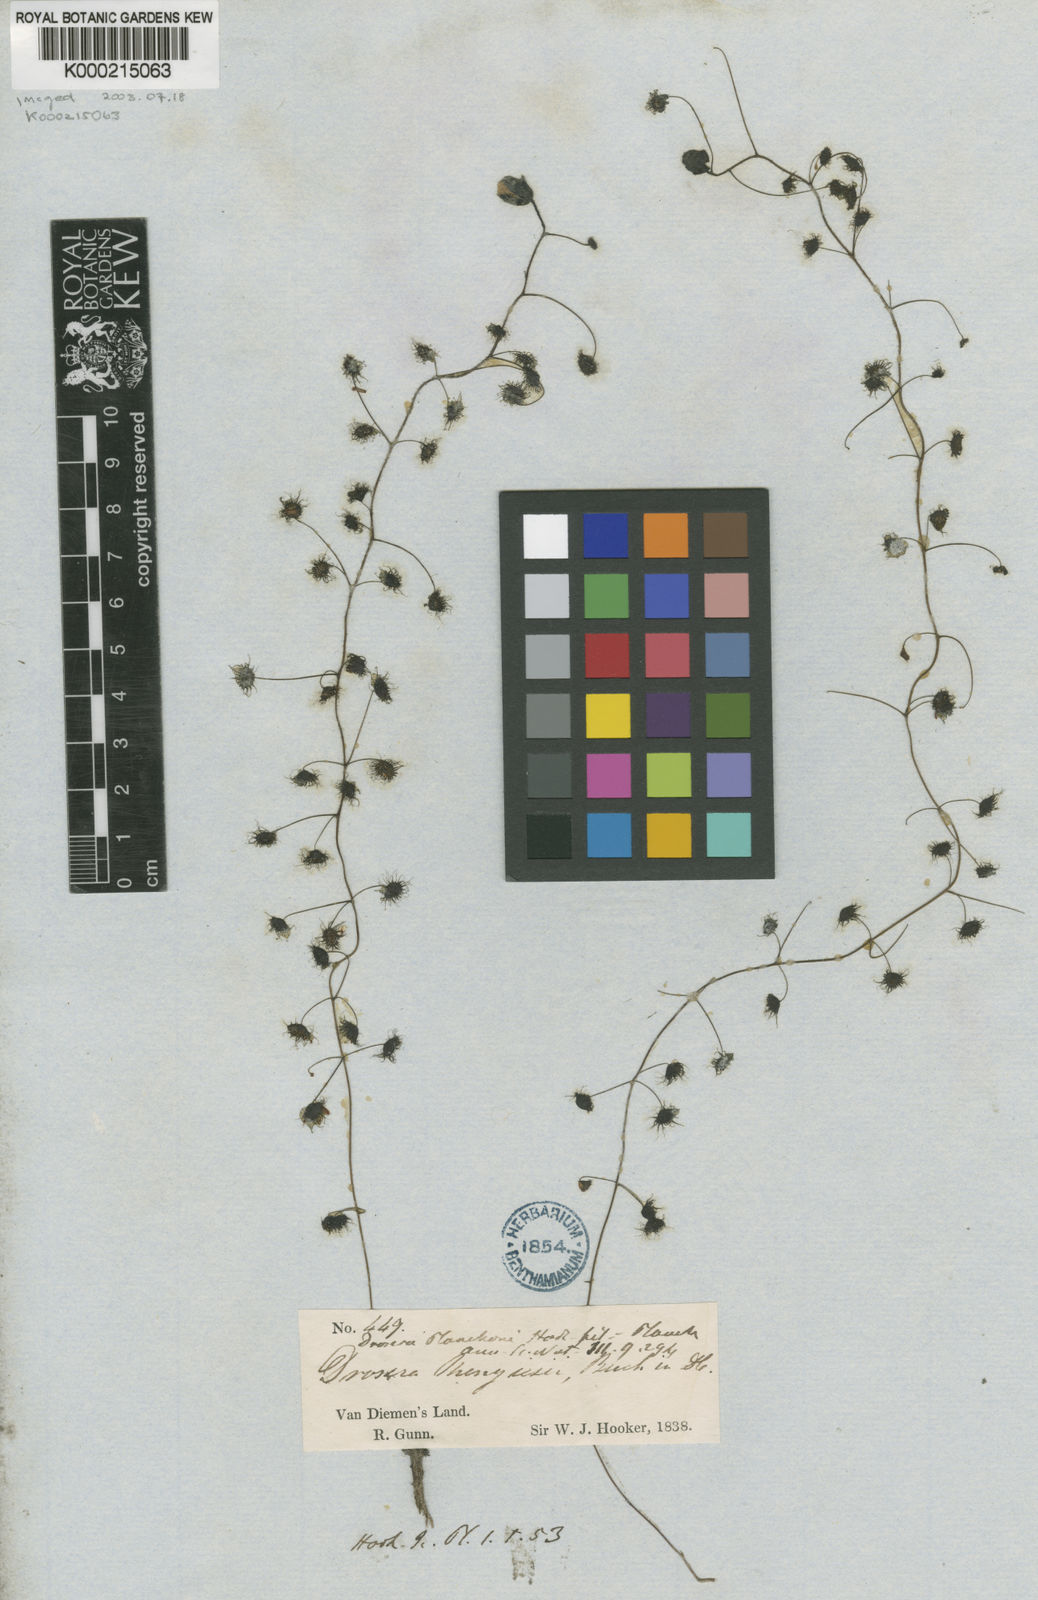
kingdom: Plantae
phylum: Tracheophyta
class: Magnoliopsida
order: Caryophyllales
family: Droseraceae
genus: Drosera
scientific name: Drosera macrantha
